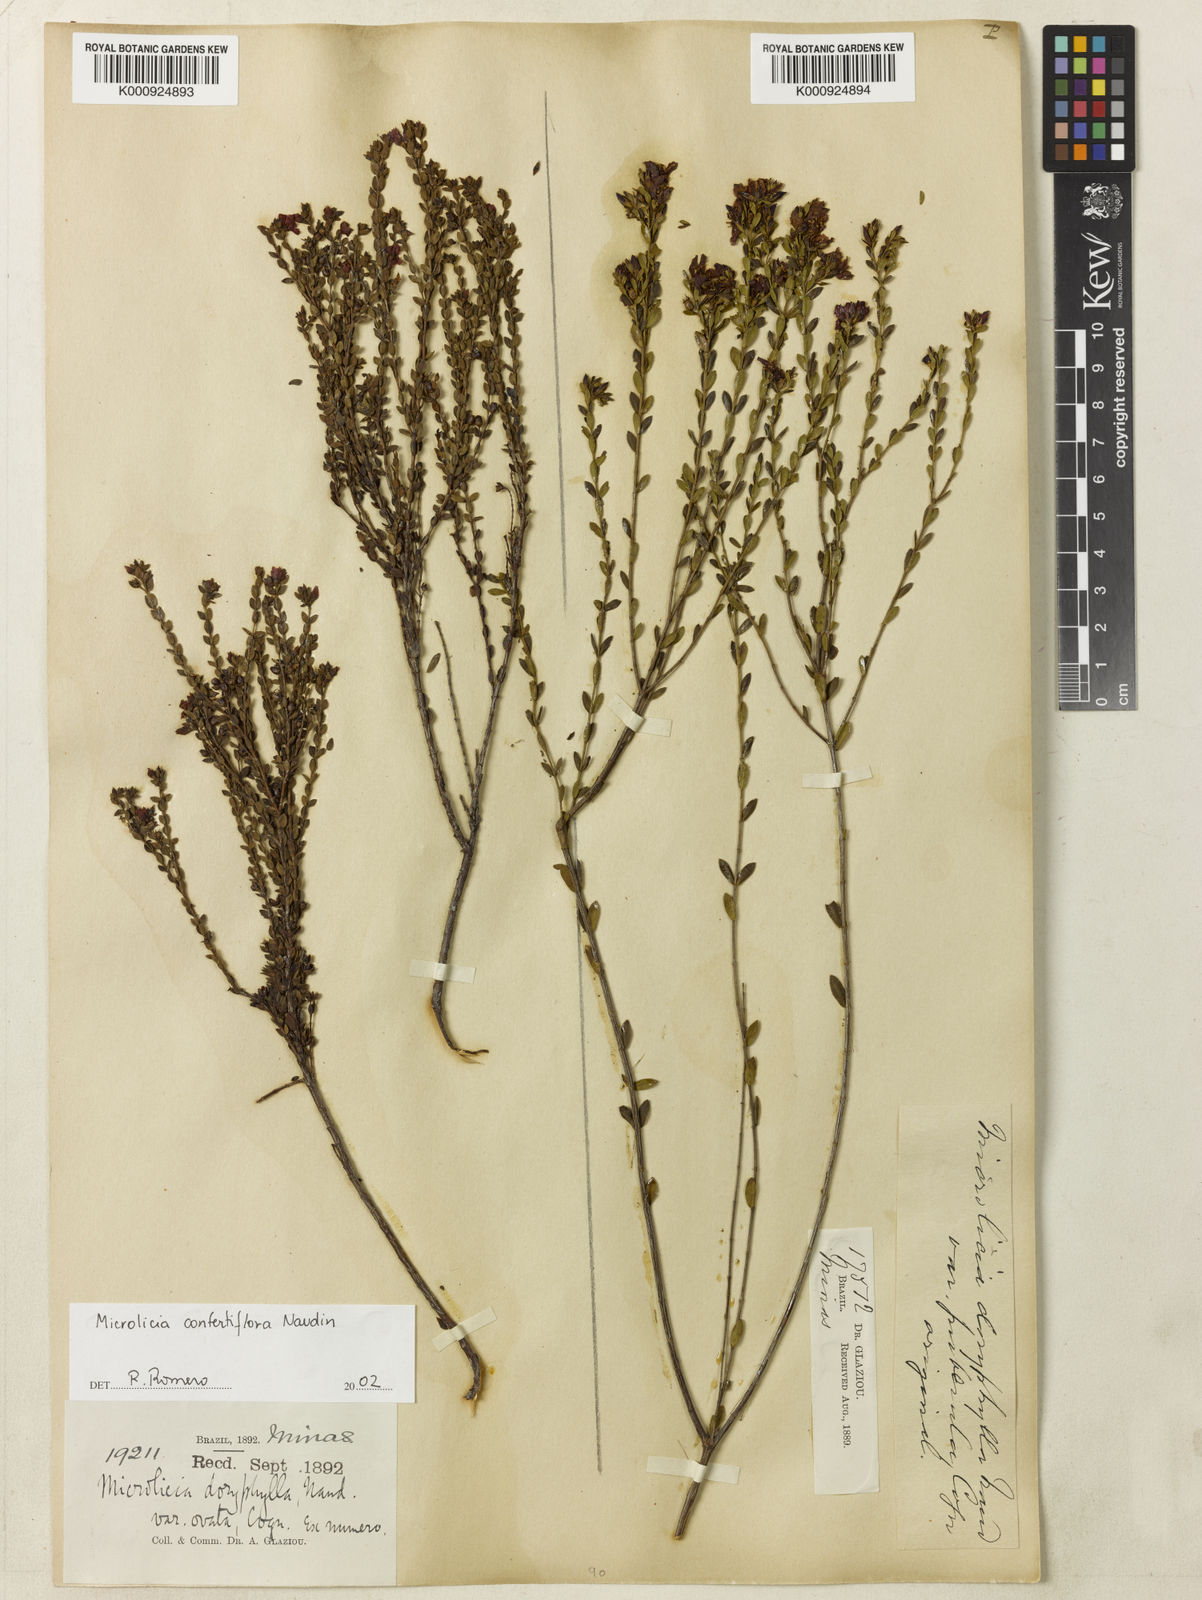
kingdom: Plantae
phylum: Tracheophyta
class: Magnoliopsida
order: Myrtales
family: Melastomataceae
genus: Microlicia
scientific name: Microlicia confertiflora
